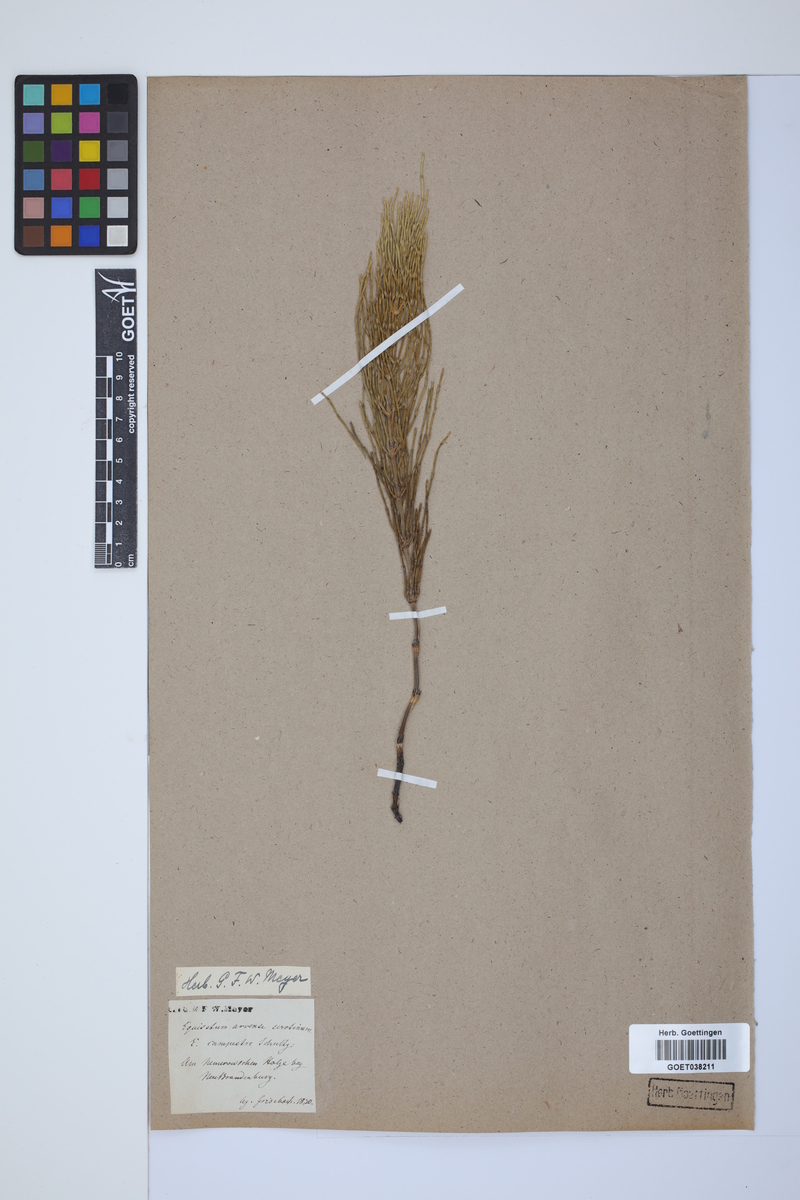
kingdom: Plantae
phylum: Tracheophyta
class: Polypodiopsida
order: Equisetales
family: Equisetaceae
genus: Equisetum
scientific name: Equisetum arvense
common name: Field horsetail
